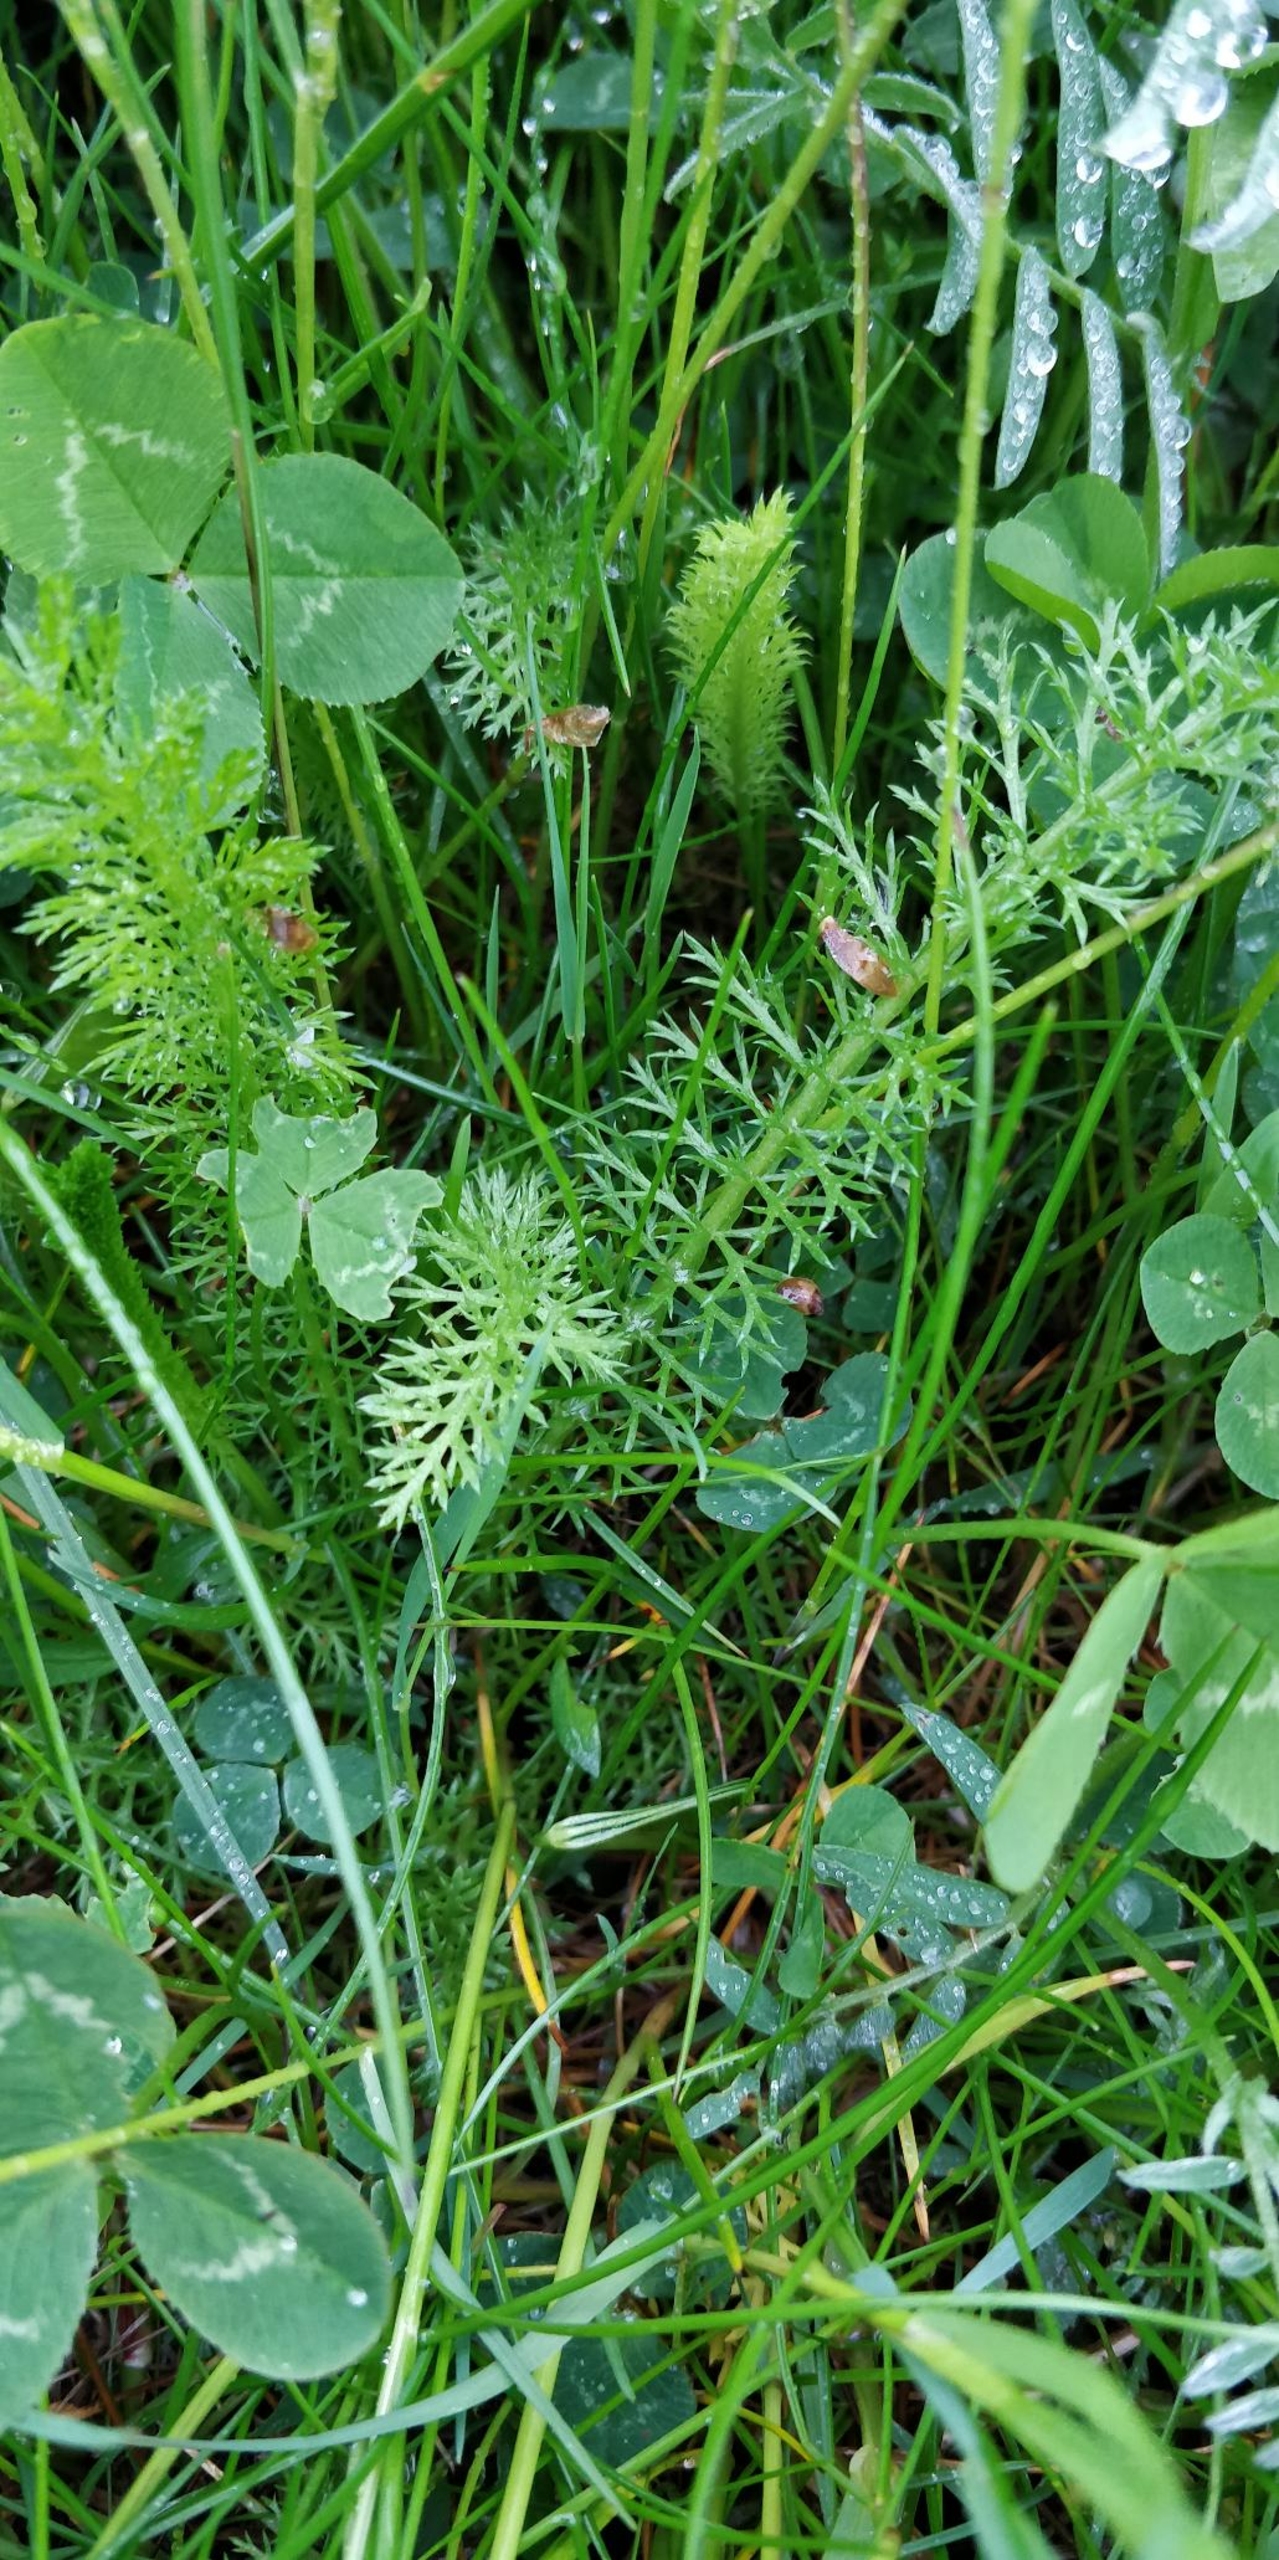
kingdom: Plantae
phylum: Tracheophyta
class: Magnoliopsida
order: Asterales
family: Asteraceae
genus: Achillea
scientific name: Achillea millefolium
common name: Almindelig røllike
